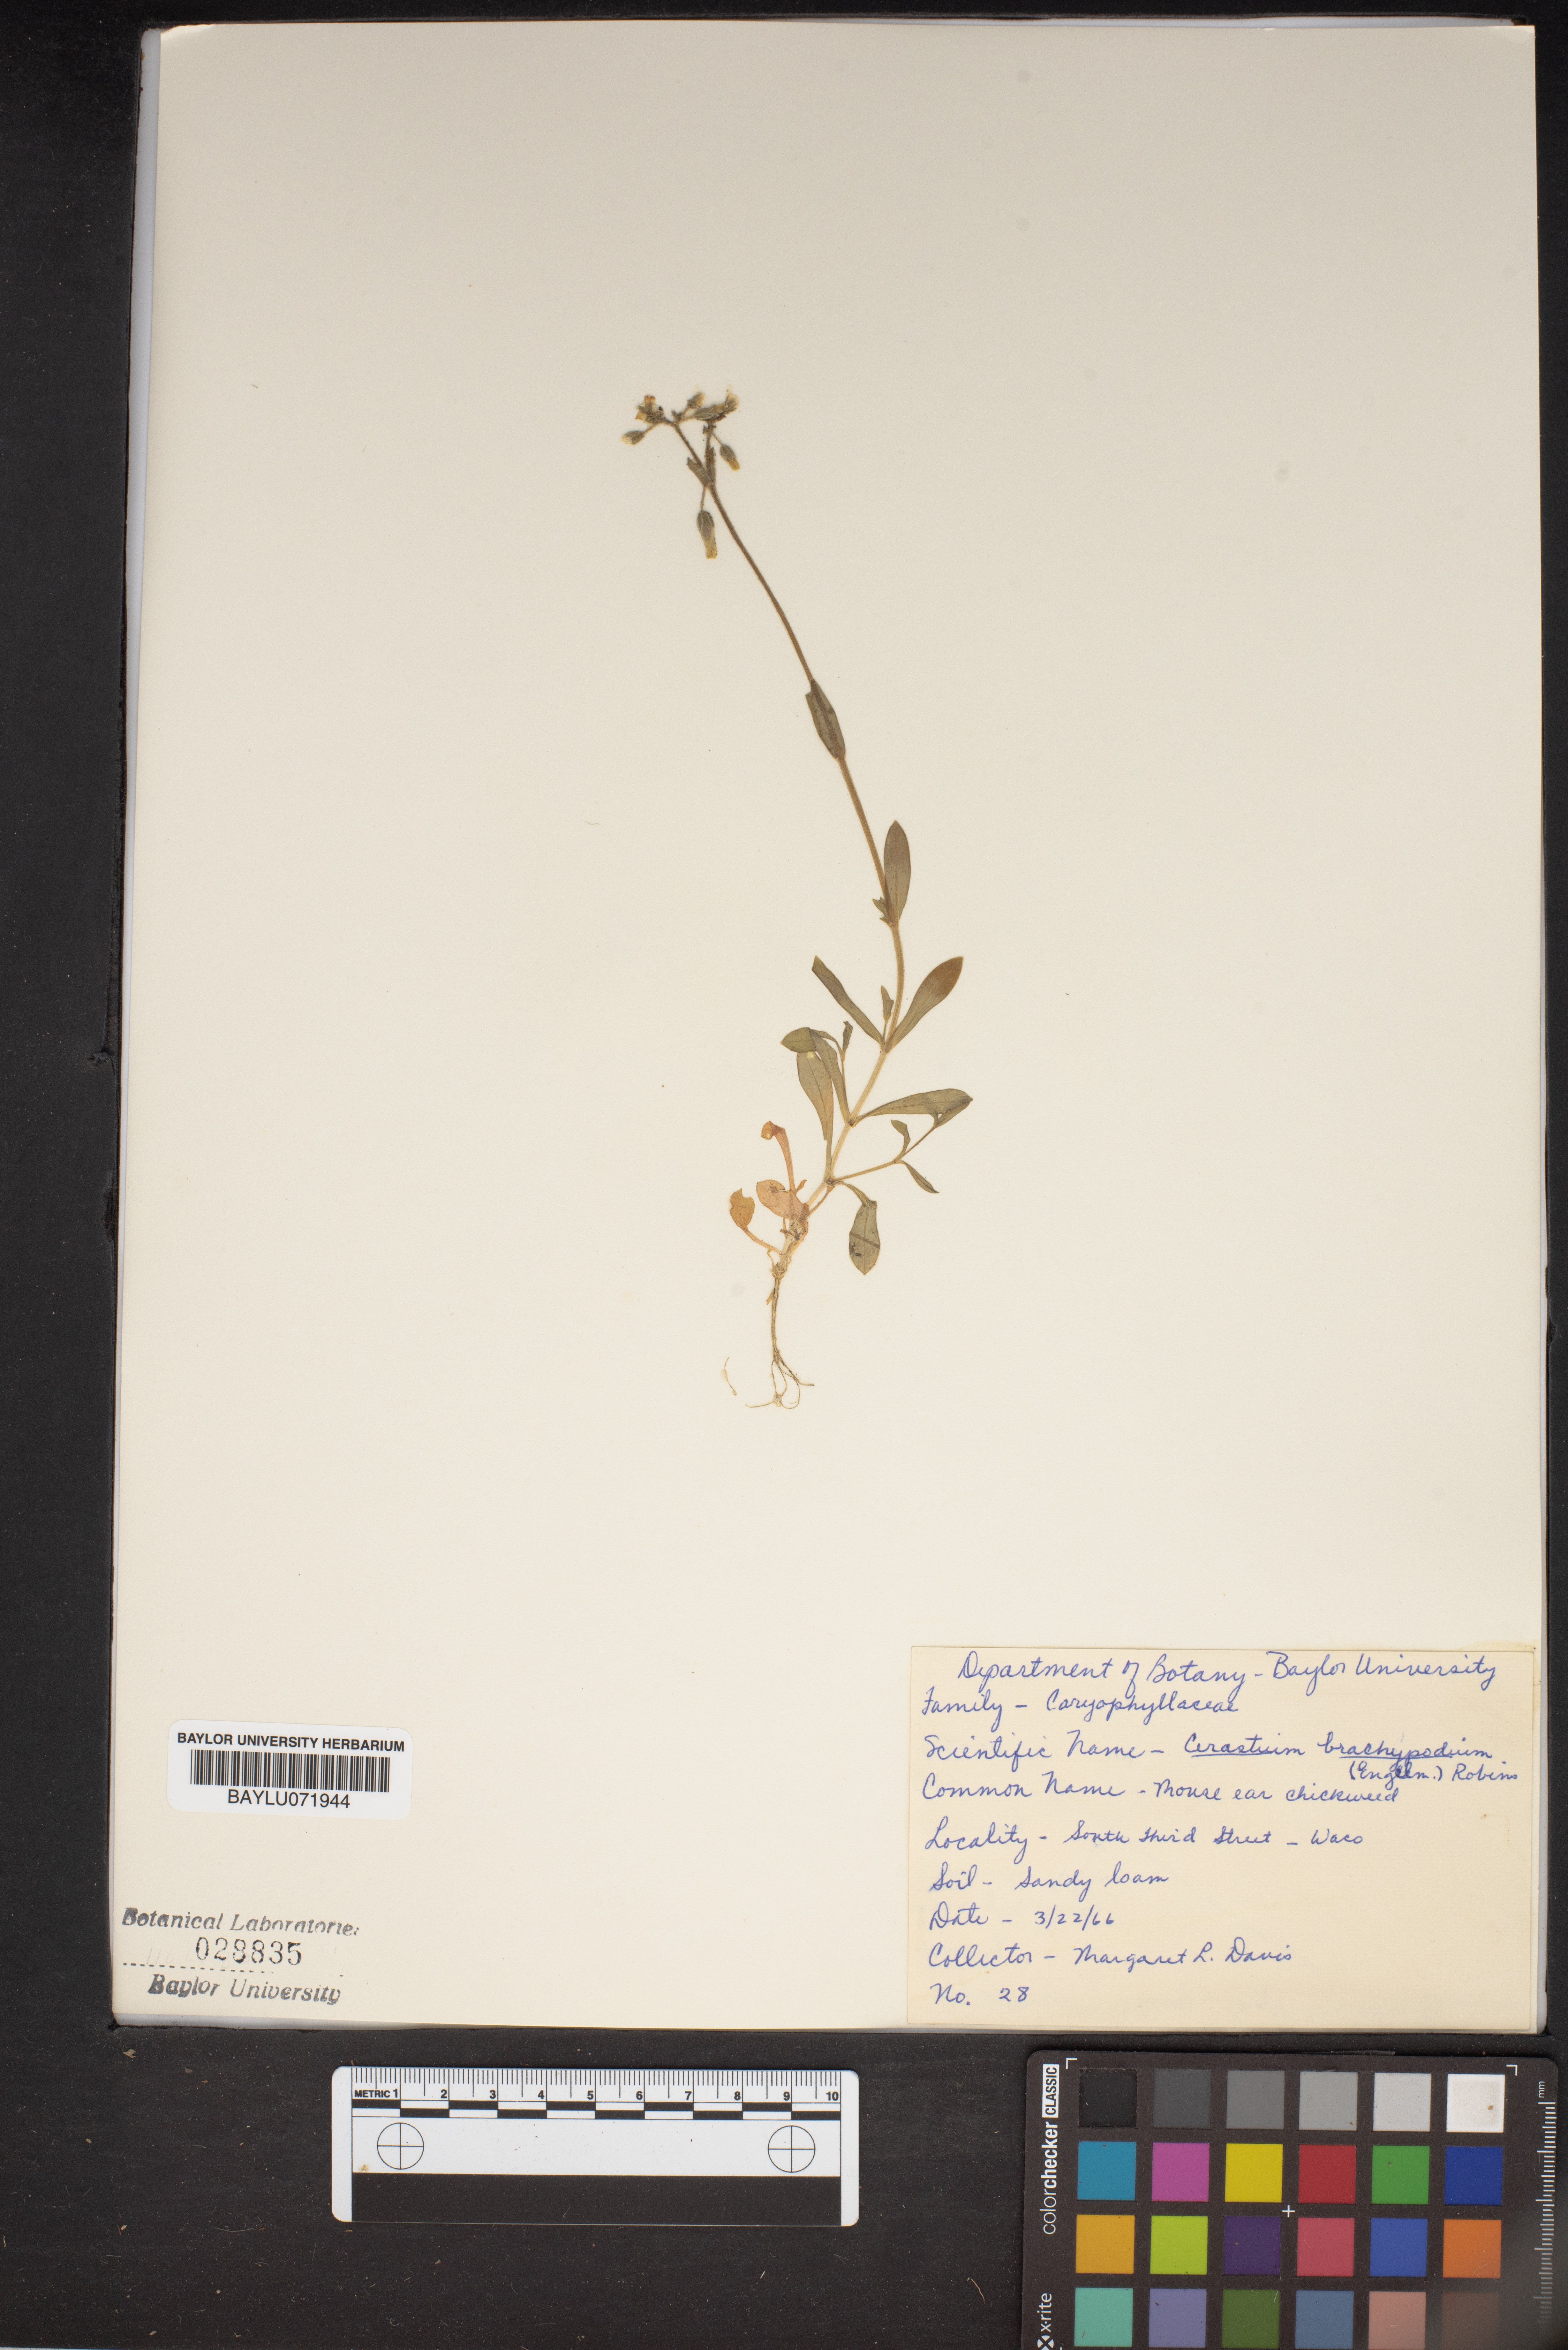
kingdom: Plantae
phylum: Tracheophyta
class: Magnoliopsida
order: Caryophyllales
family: Caryophyllaceae
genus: Cerastium
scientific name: Cerastium brachypodum
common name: Short-pedicelled nodding chickweed
